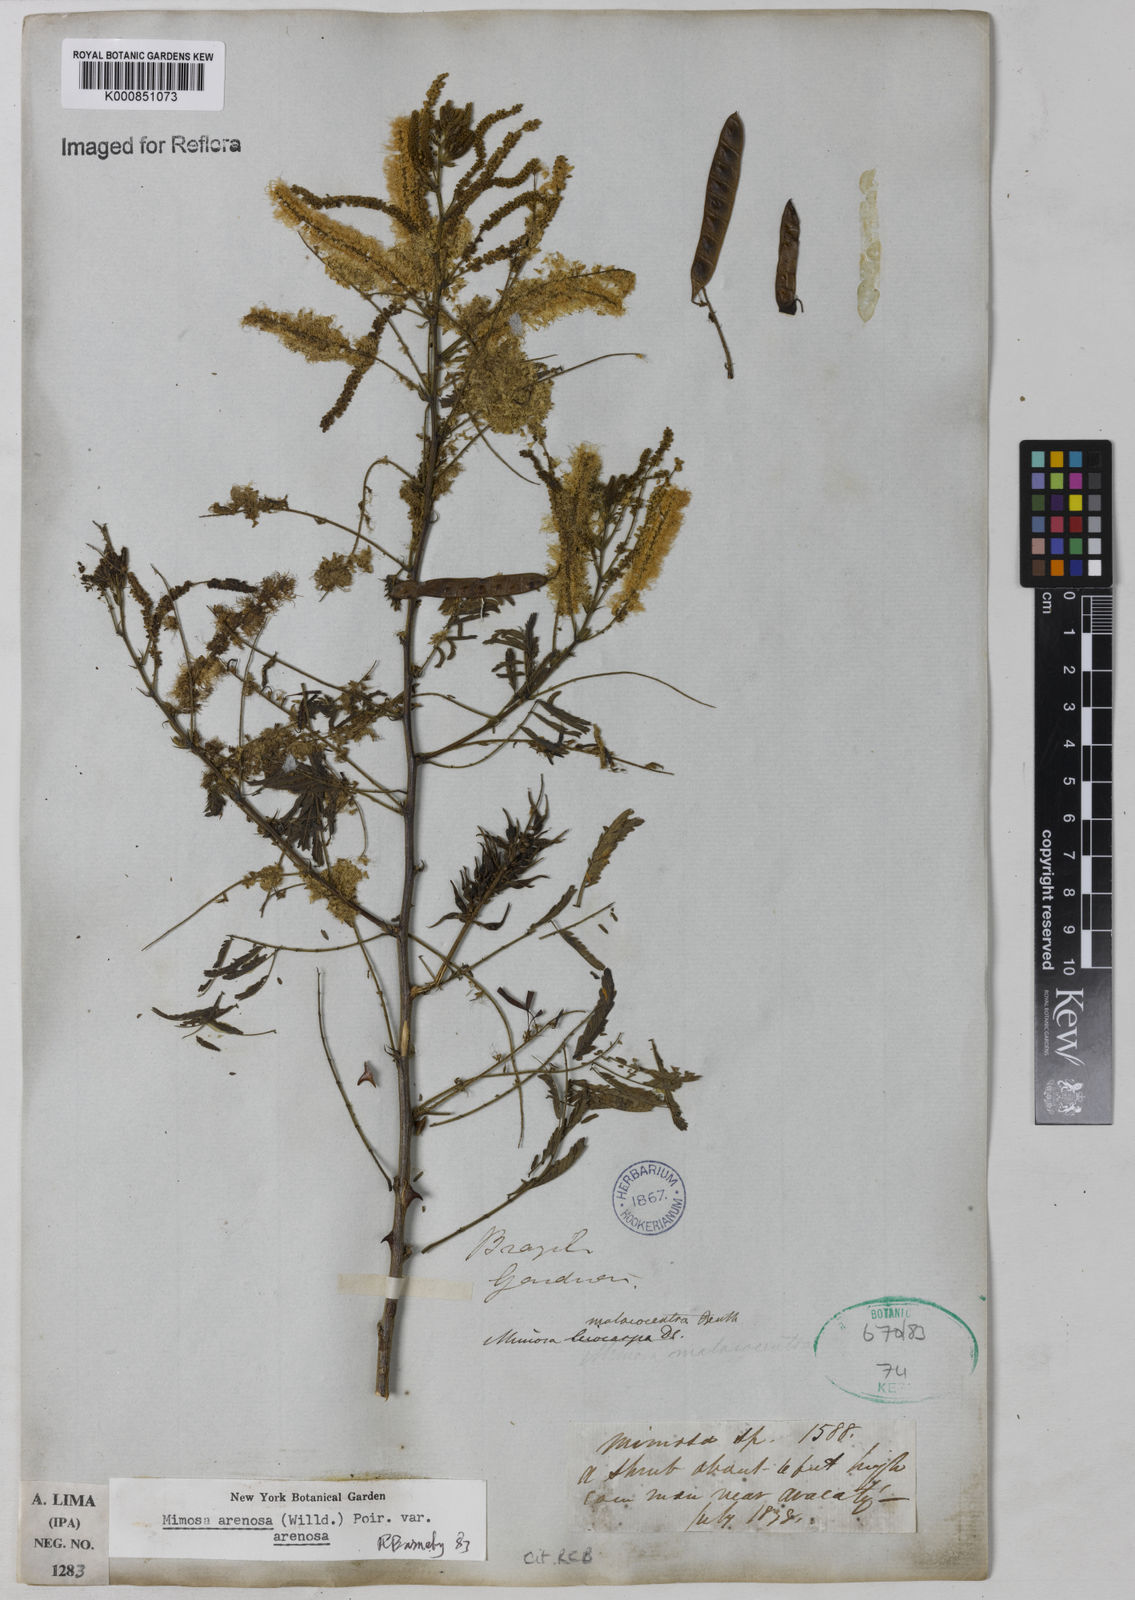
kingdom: Plantae
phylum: Tracheophyta
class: Magnoliopsida
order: Fabales
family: Fabaceae
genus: Mimosa
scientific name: Mimosa arenosa
